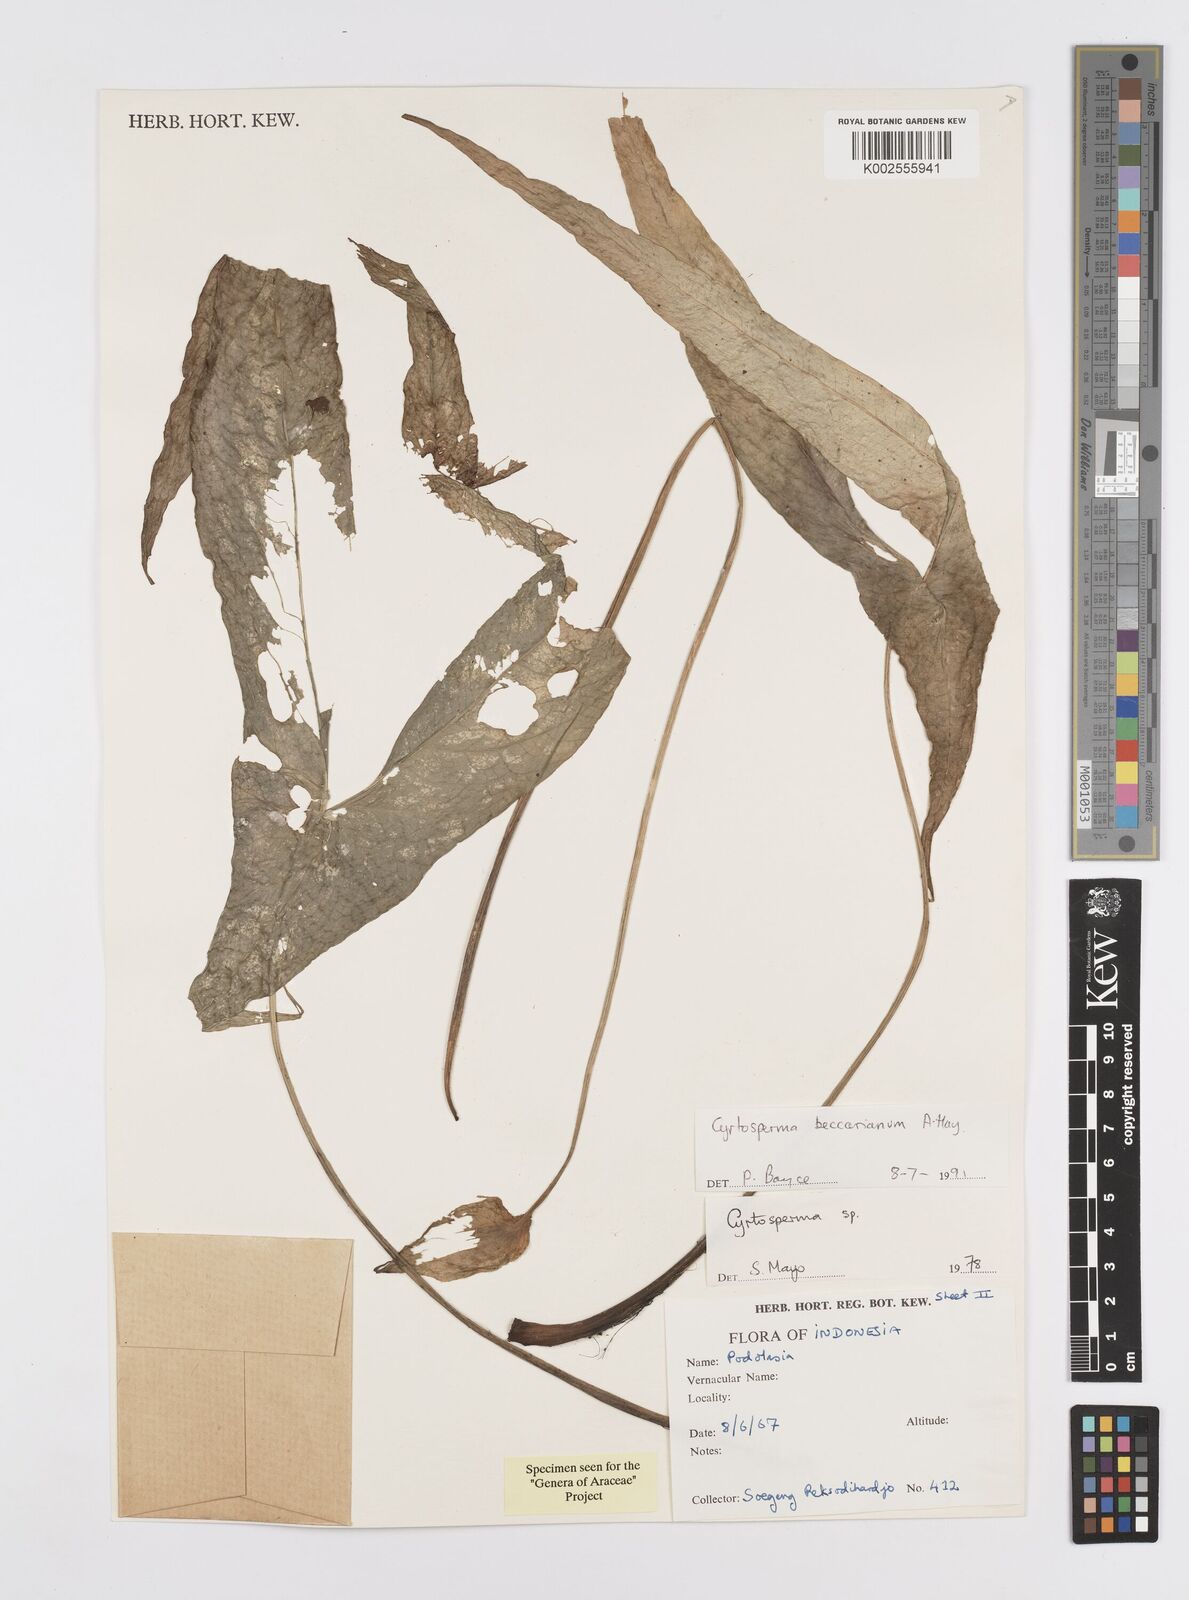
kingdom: Plantae
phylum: Tracheophyta
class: Liliopsida
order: Alismatales
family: Araceae
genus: Cyrtosperma
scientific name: Cyrtosperma beccarianum
